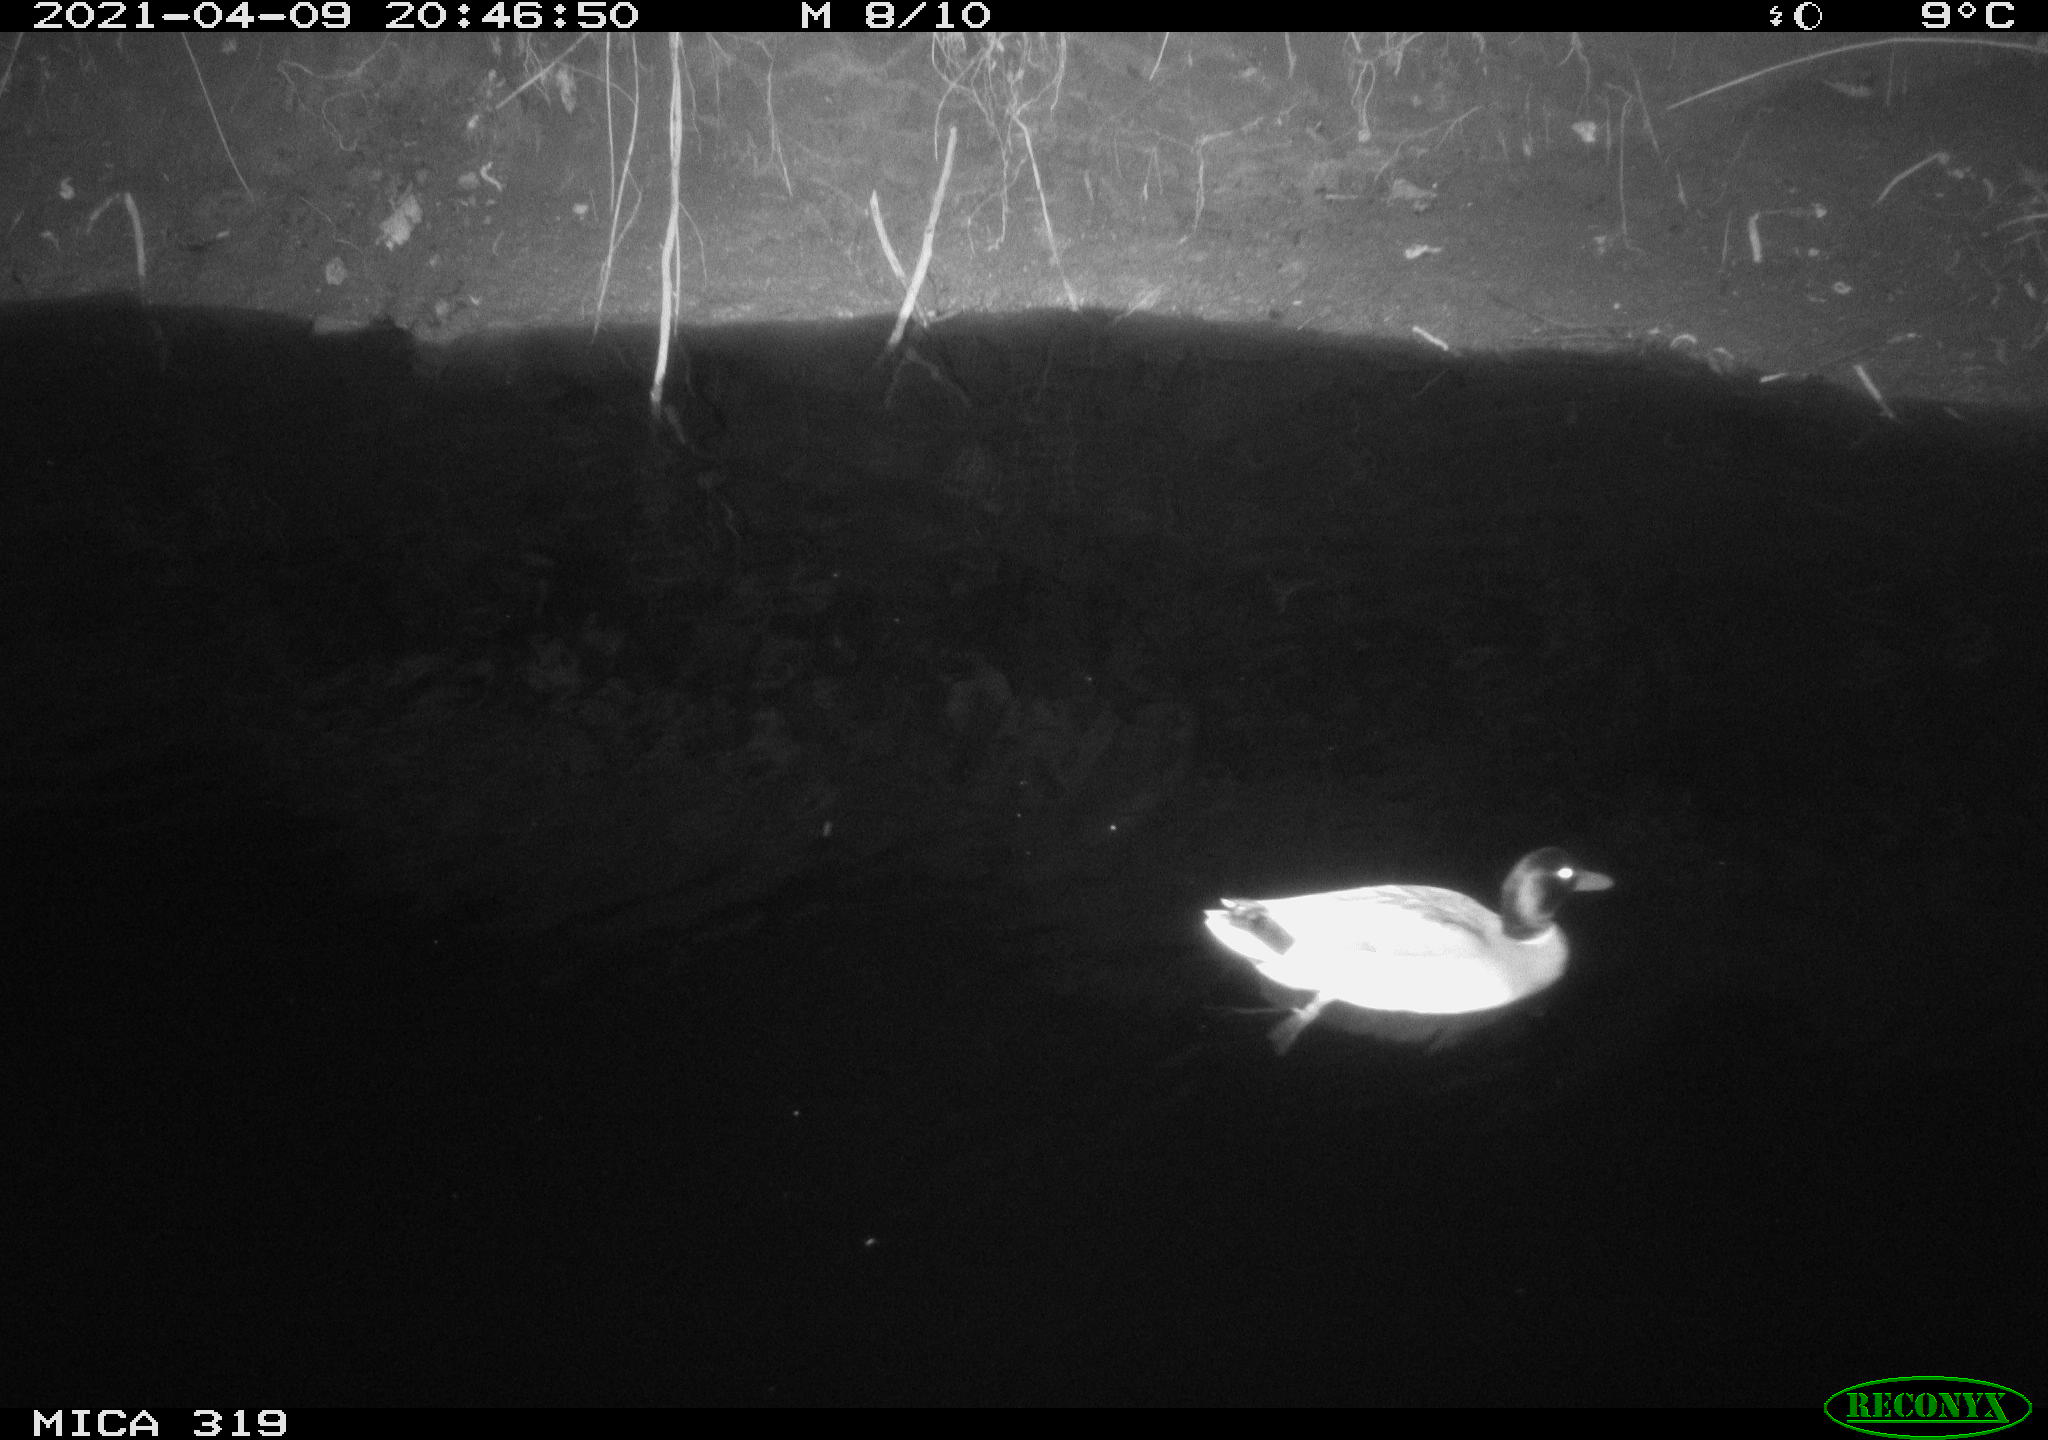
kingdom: Animalia
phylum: Chordata
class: Aves
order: Anseriformes
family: Anatidae
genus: Anas
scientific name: Anas platyrhynchos
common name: Mallard
